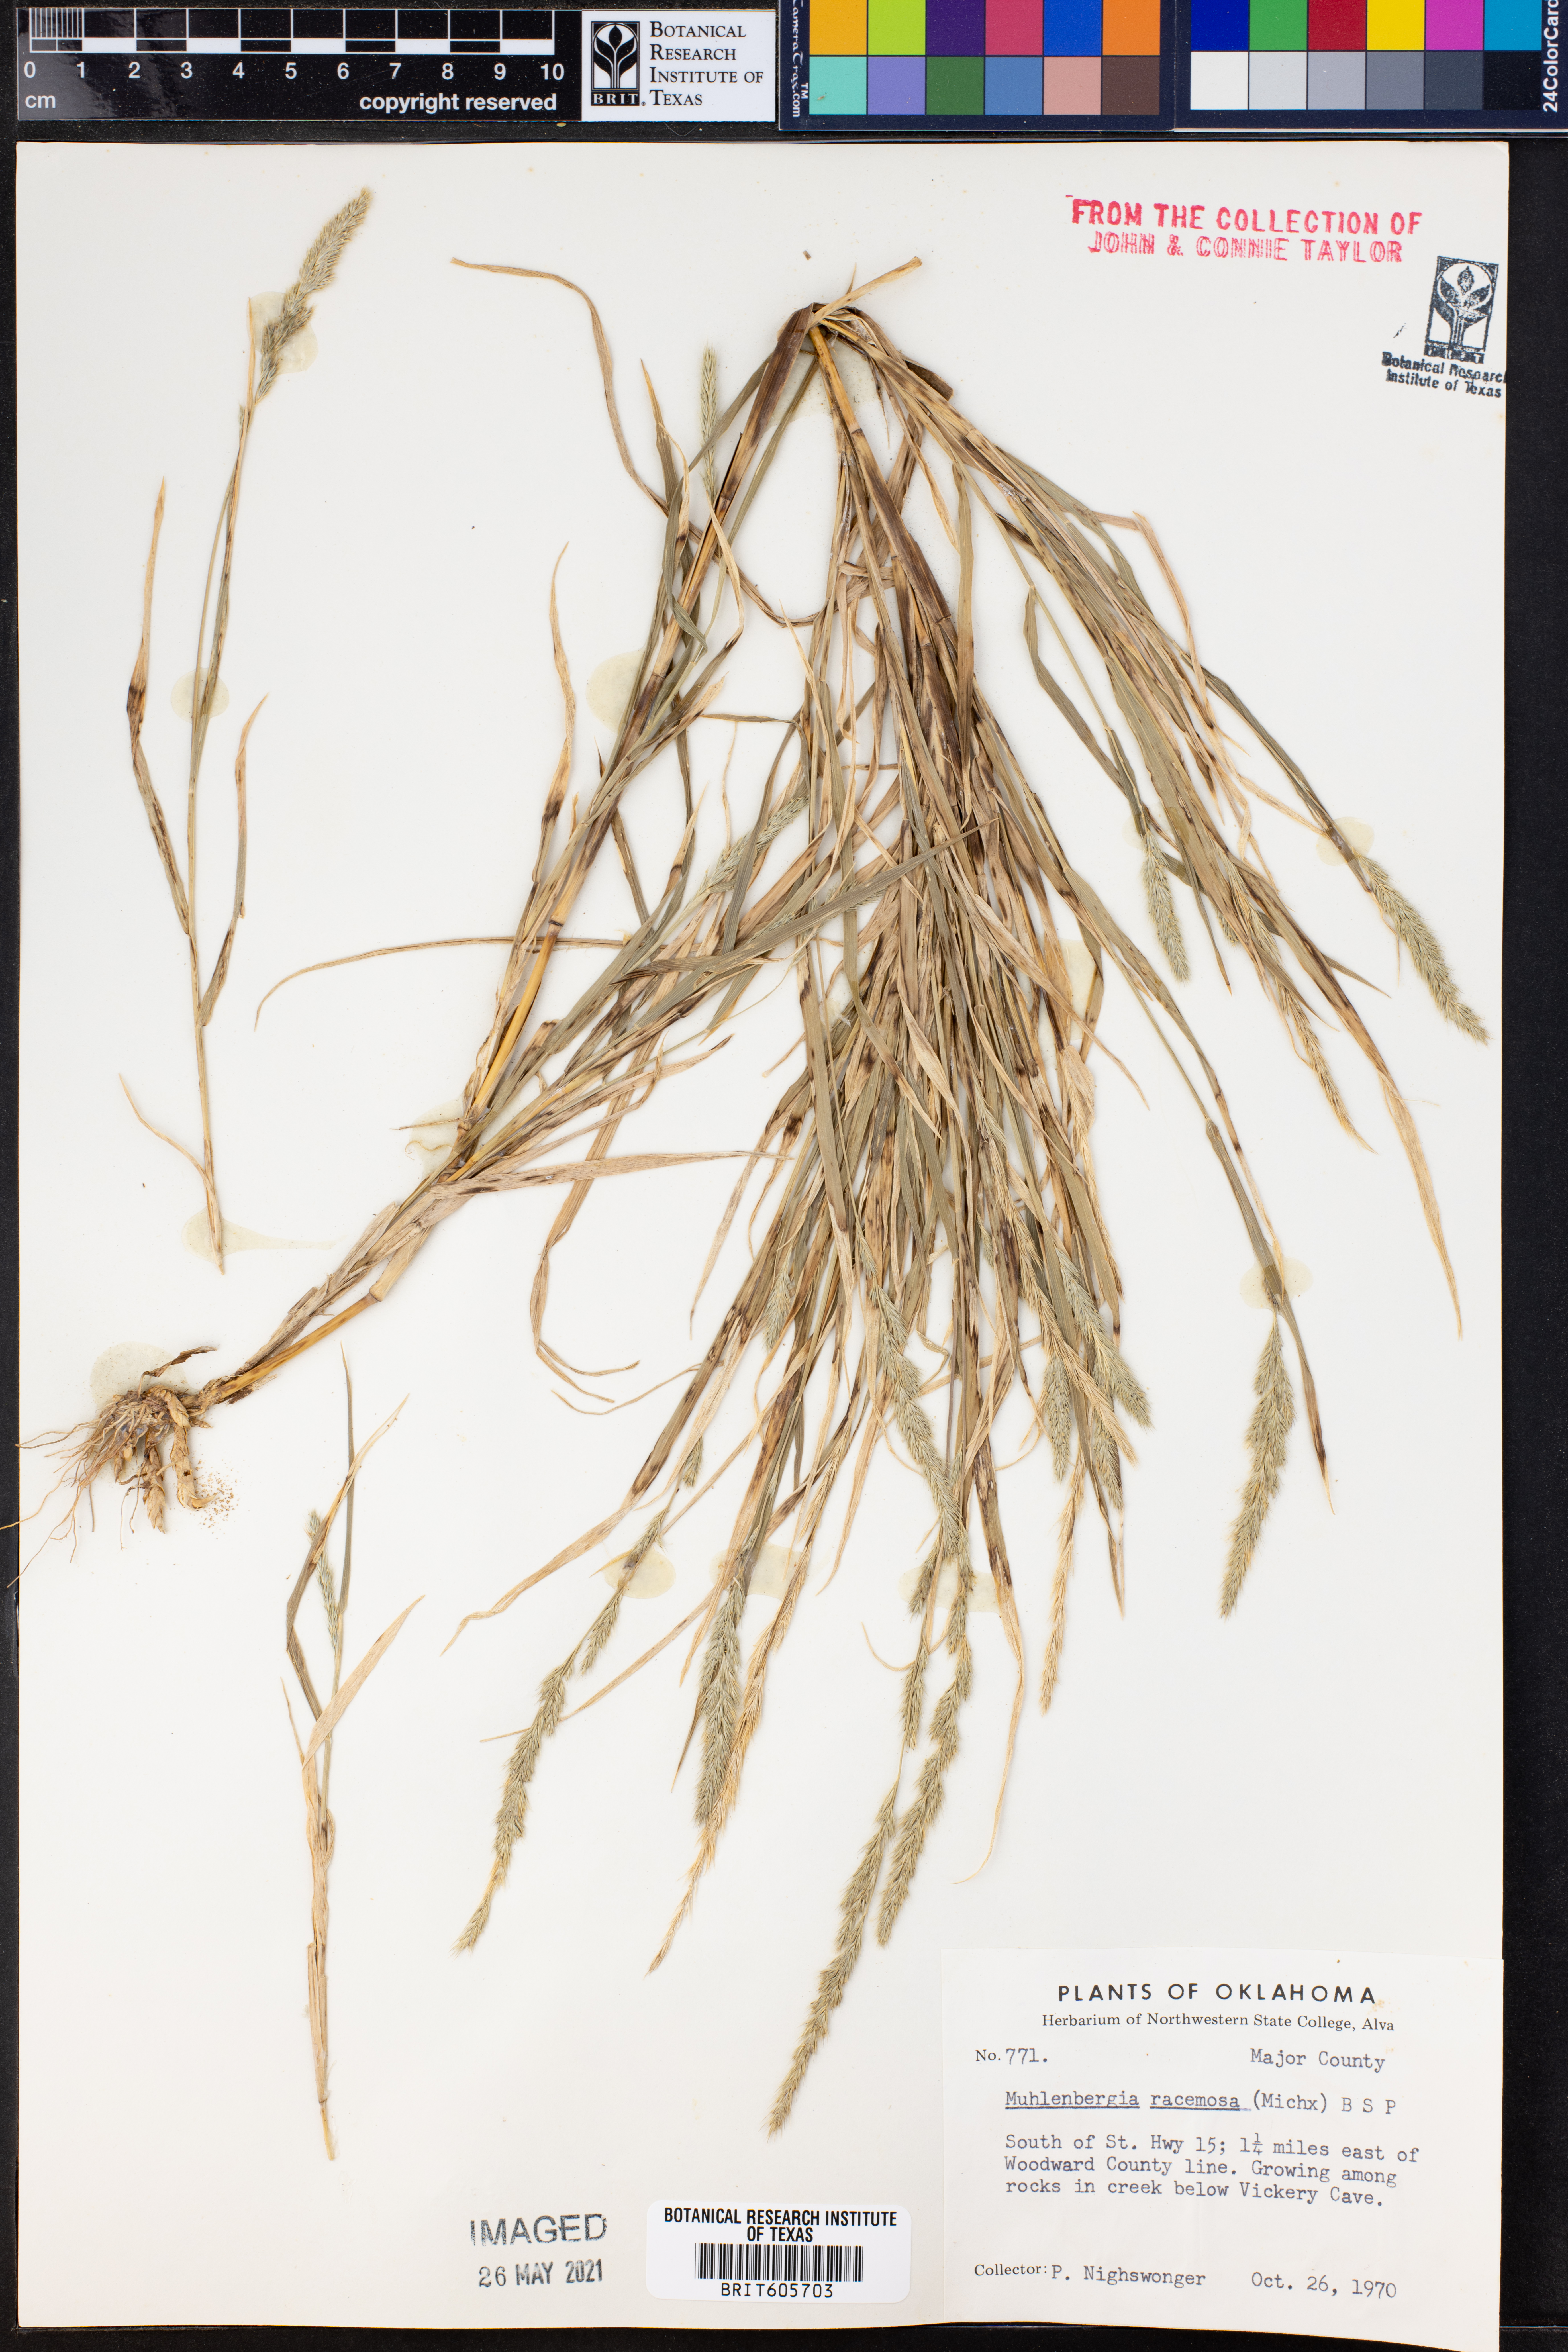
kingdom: Plantae
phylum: Tracheophyta
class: Liliopsida
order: Poales
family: Poaceae
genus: Muhlenbergia
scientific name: Muhlenbergia racemosa
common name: Green muhly
